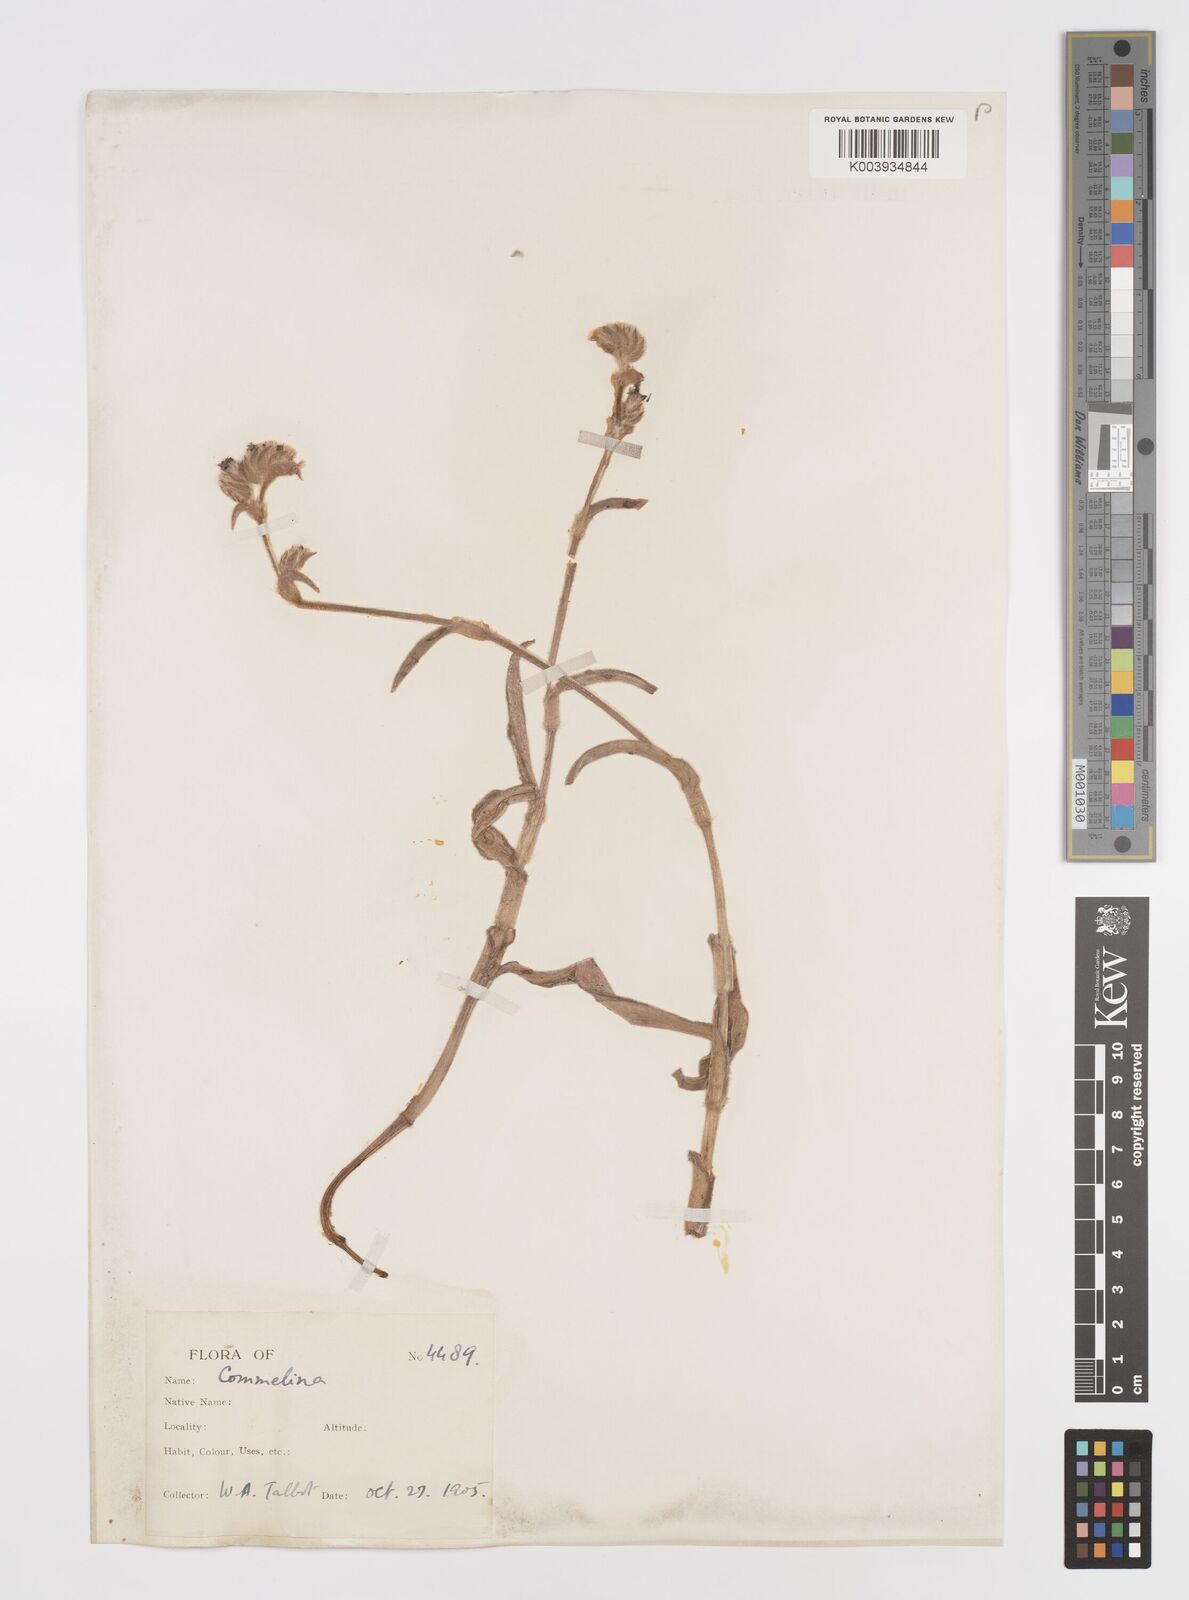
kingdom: Plantae
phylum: Tracheophyta
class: Liliopsida
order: Commelinales
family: Commelinaceae
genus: Cyanotis
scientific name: Cyanotis
